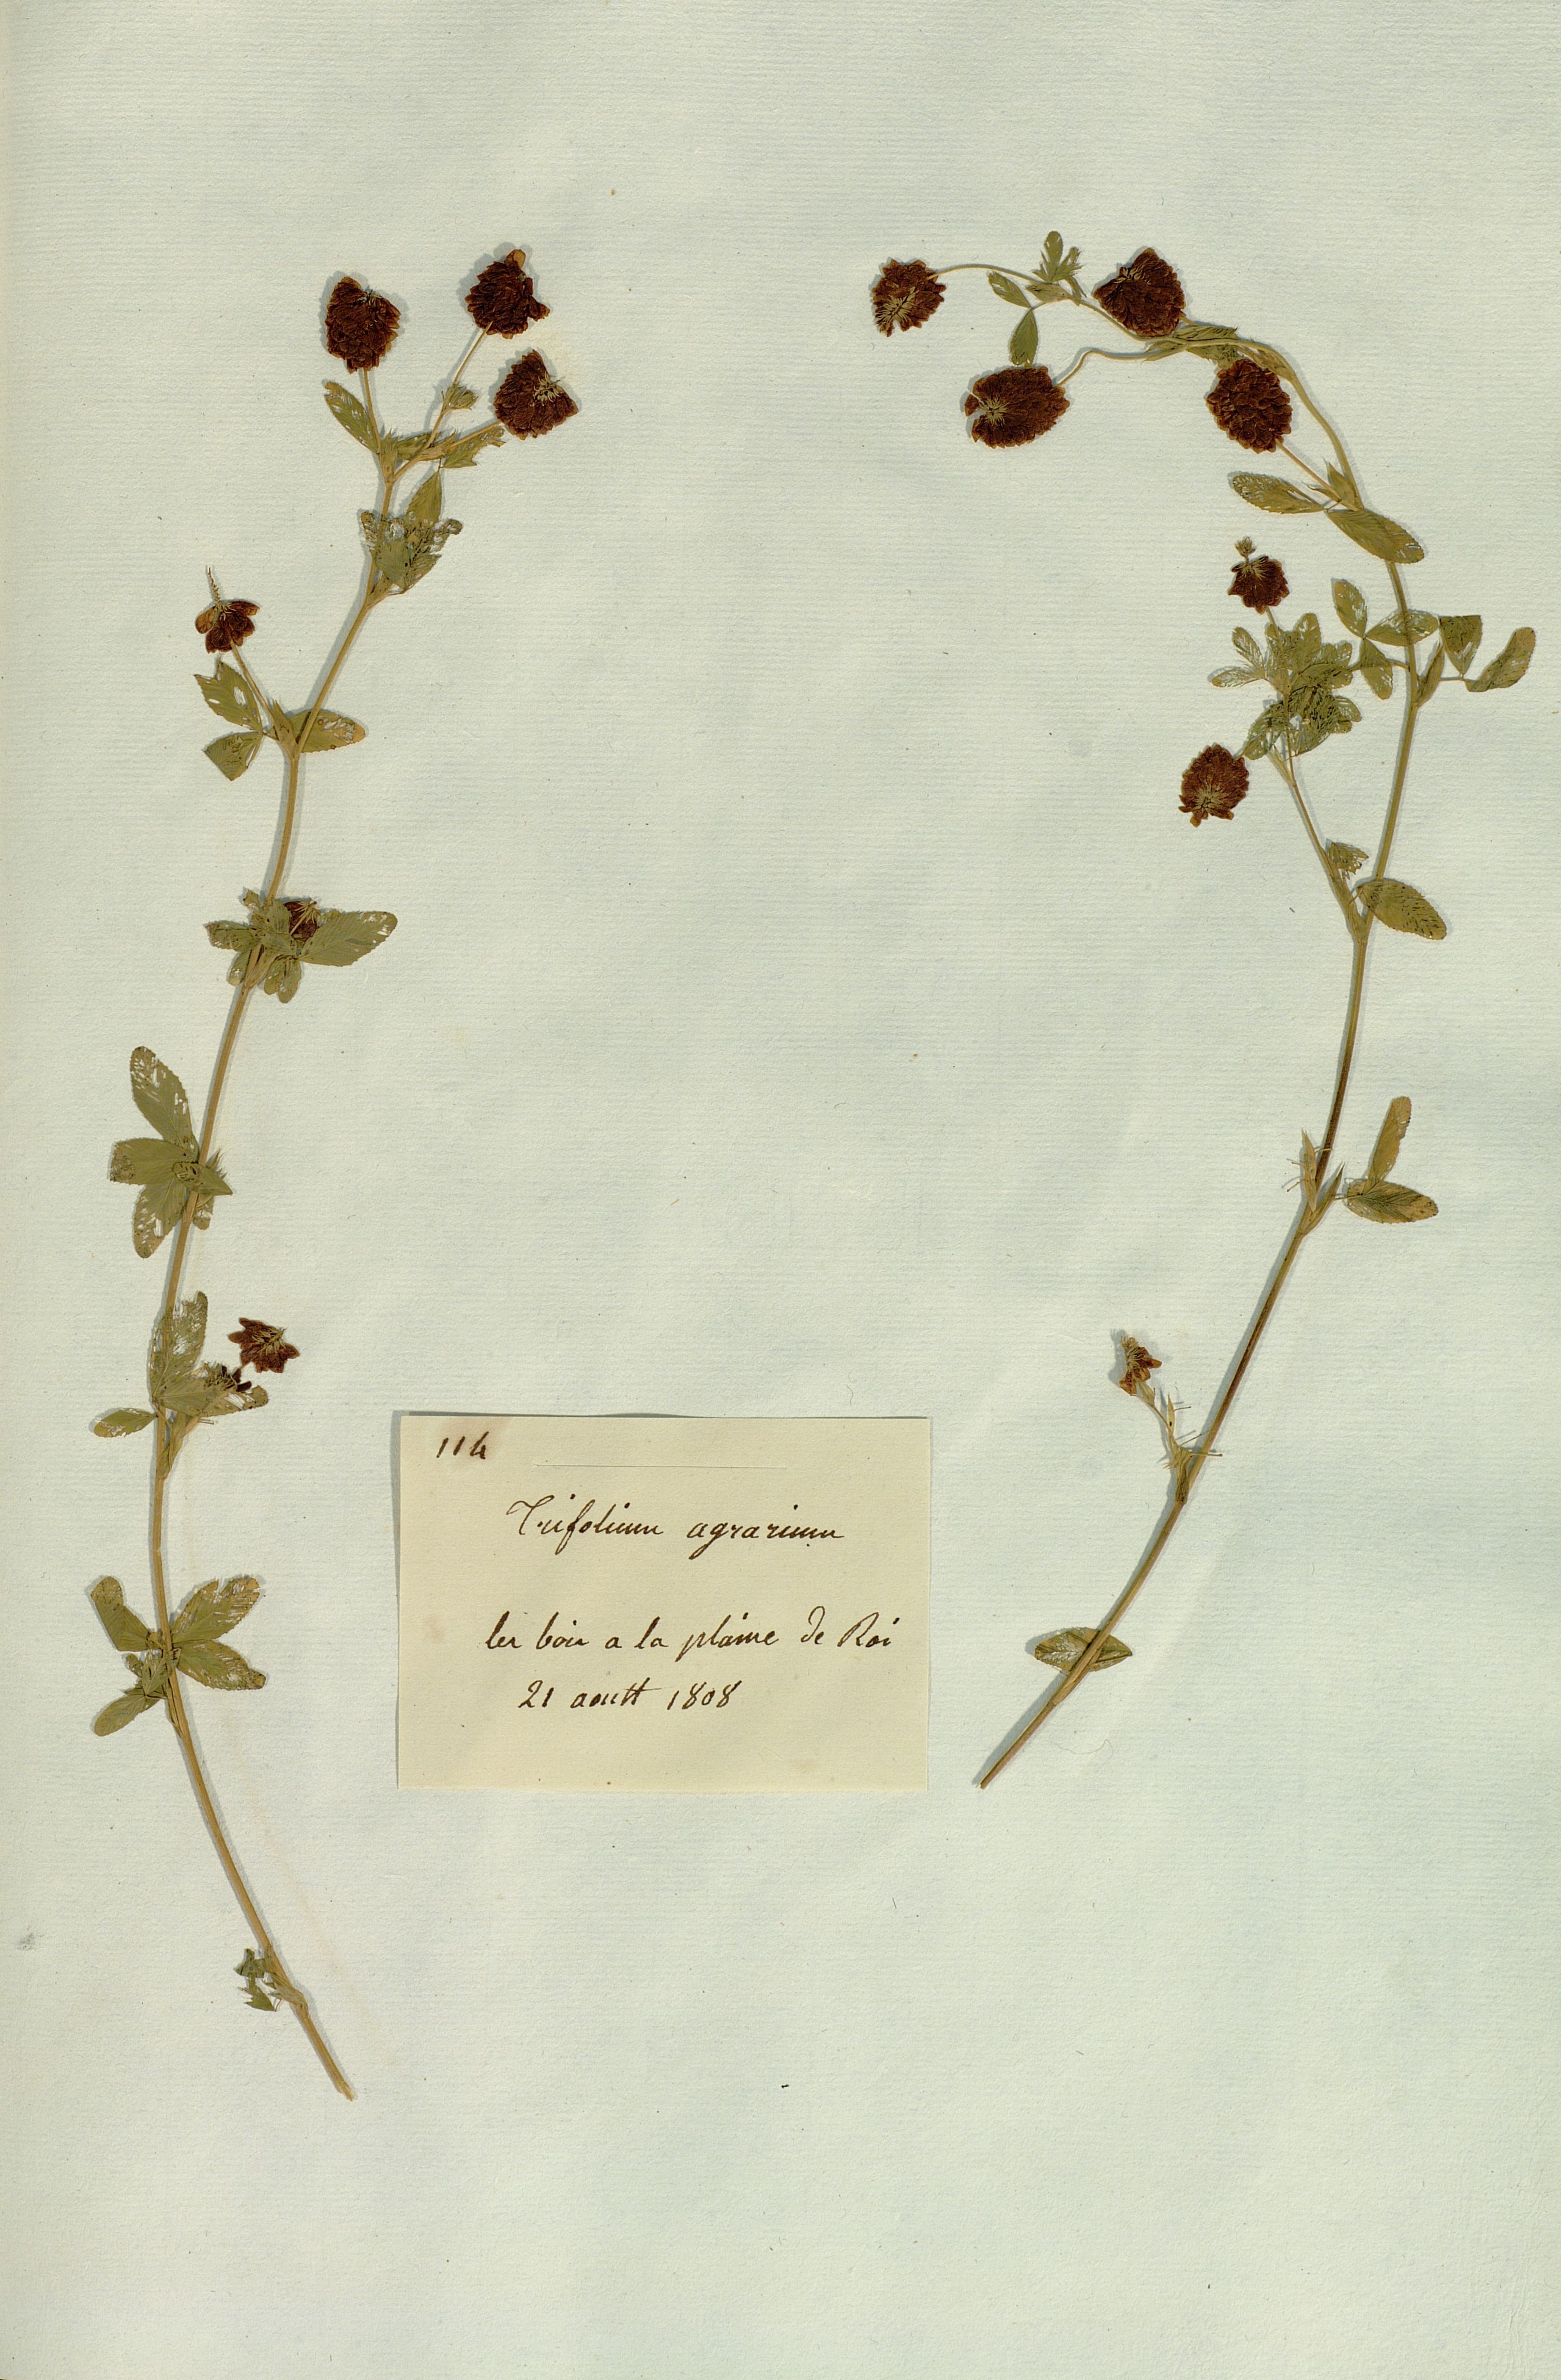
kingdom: Plantae
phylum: Tracheophyta
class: Magnoliopsida
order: Fabales
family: Fabaceae
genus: Trifolium
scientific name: Trifolium aureum
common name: Golden clover
